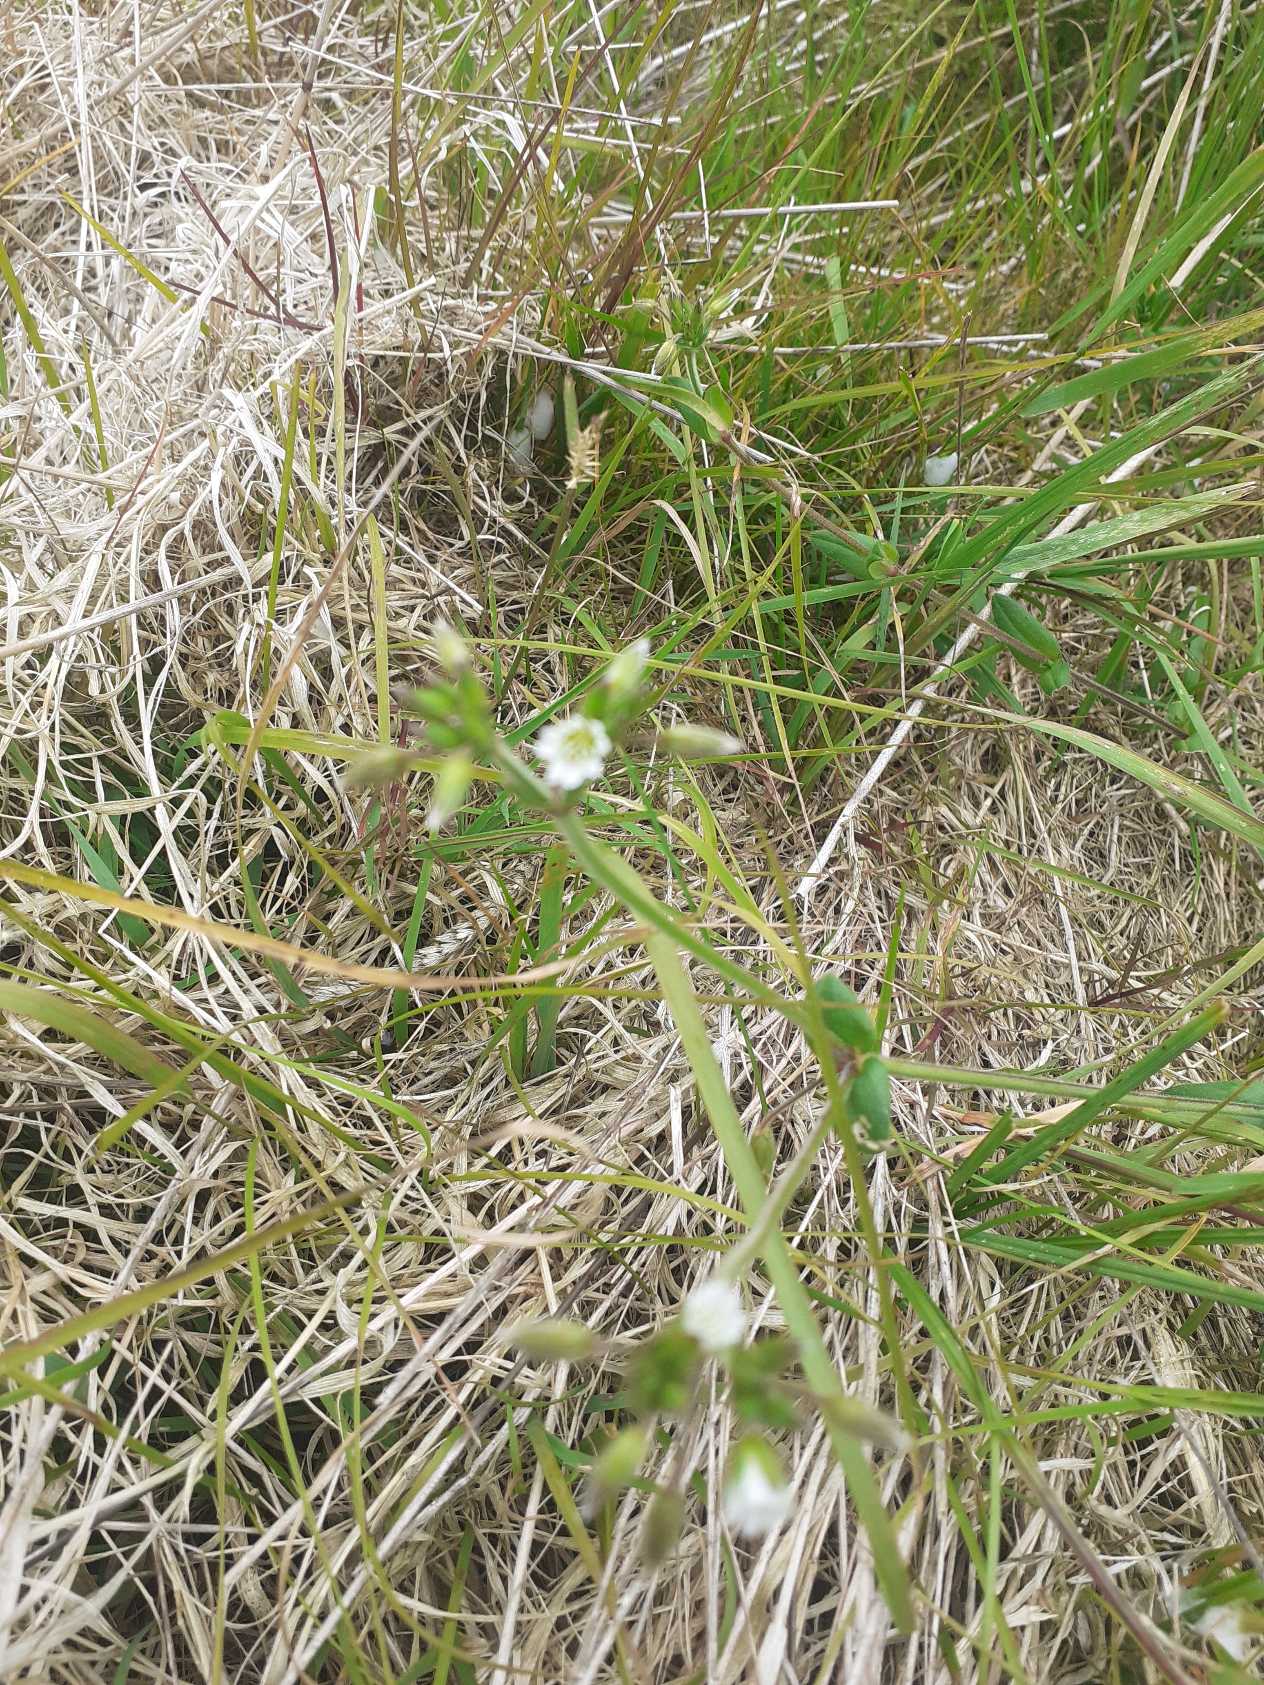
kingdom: Plantae
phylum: Tracheophyta
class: Magnoliopsida
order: Caryophyllales
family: Caryophyllaceae
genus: Cerastium
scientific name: Cerastium fontanum
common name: Almindelig hønsetarm
